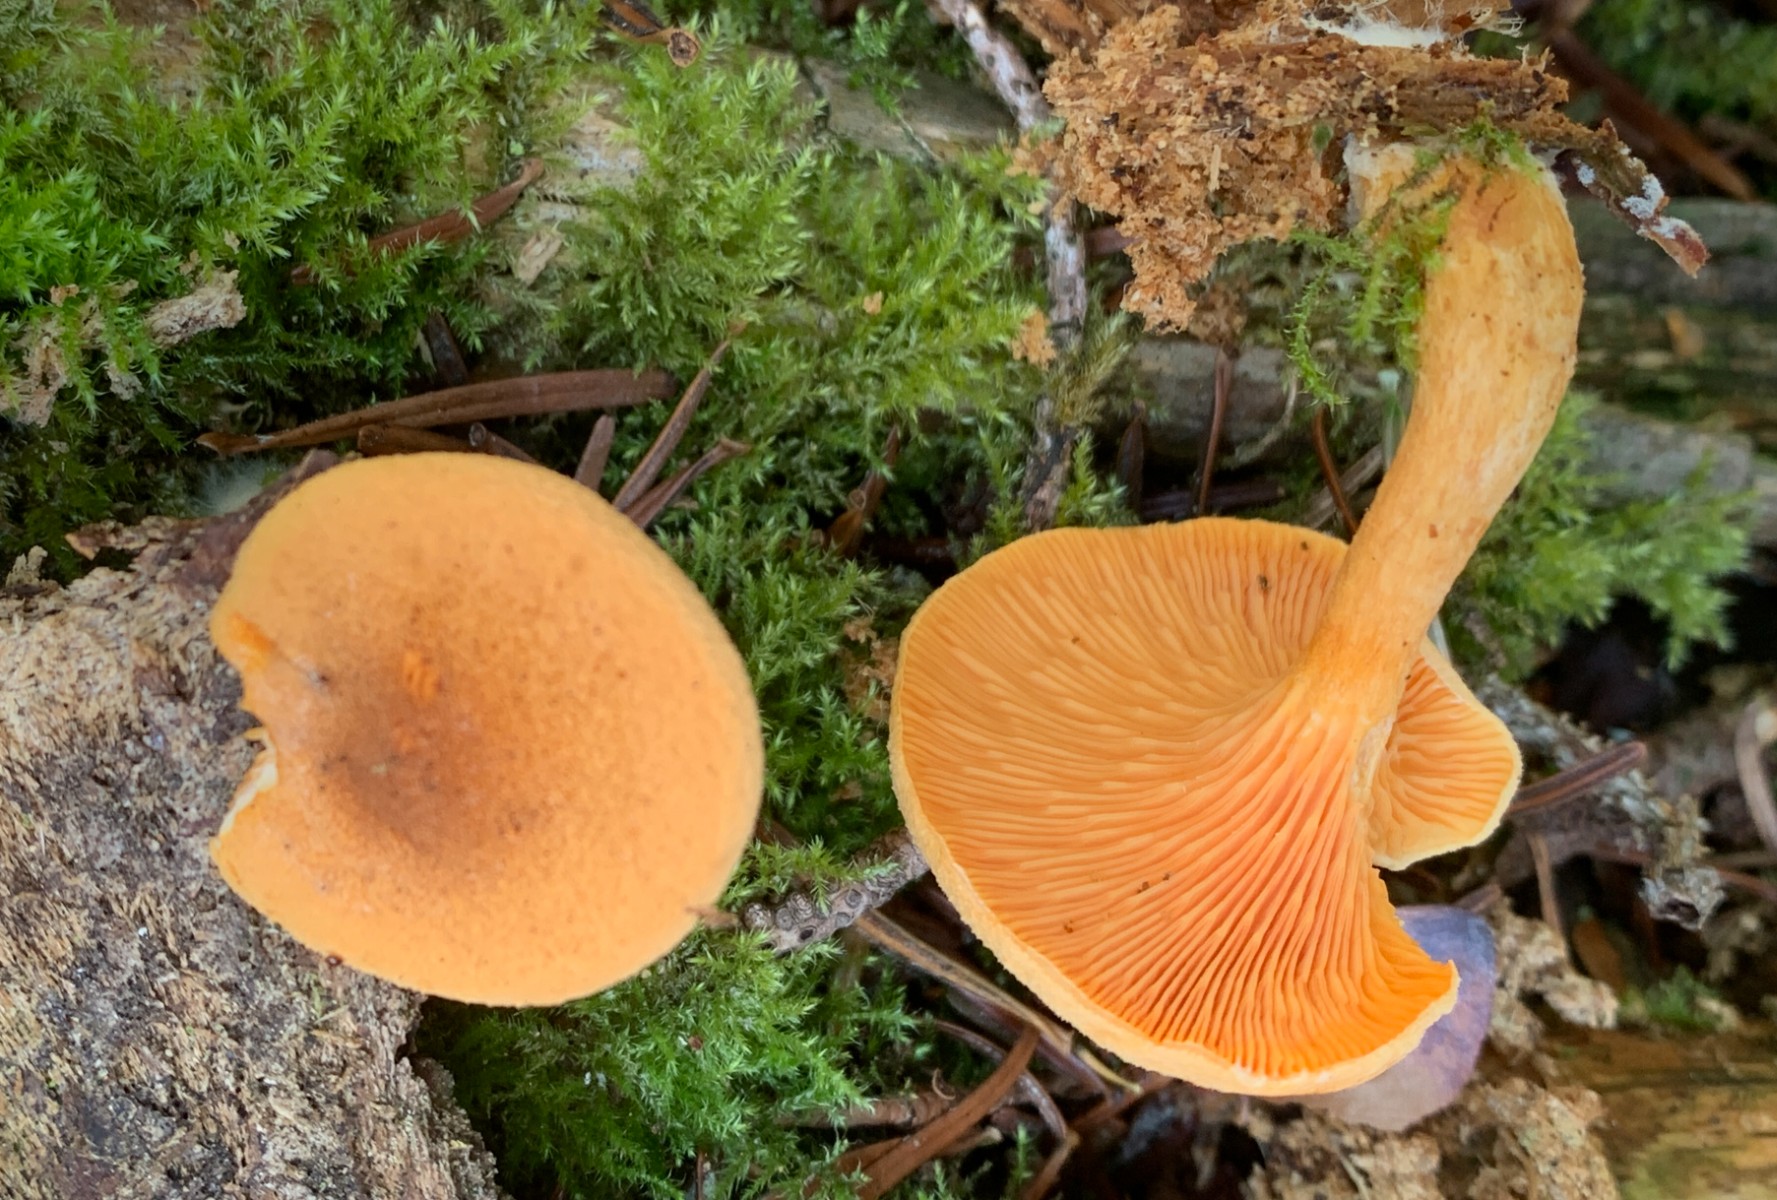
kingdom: Fungi
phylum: Basidiomycota
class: Agaricomycetes
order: Boletales
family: Hygrophoropsidaceae
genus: Hygrophoropsis
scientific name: Hygrophoropsis aurantiaca
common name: almindelig orangekantarel
